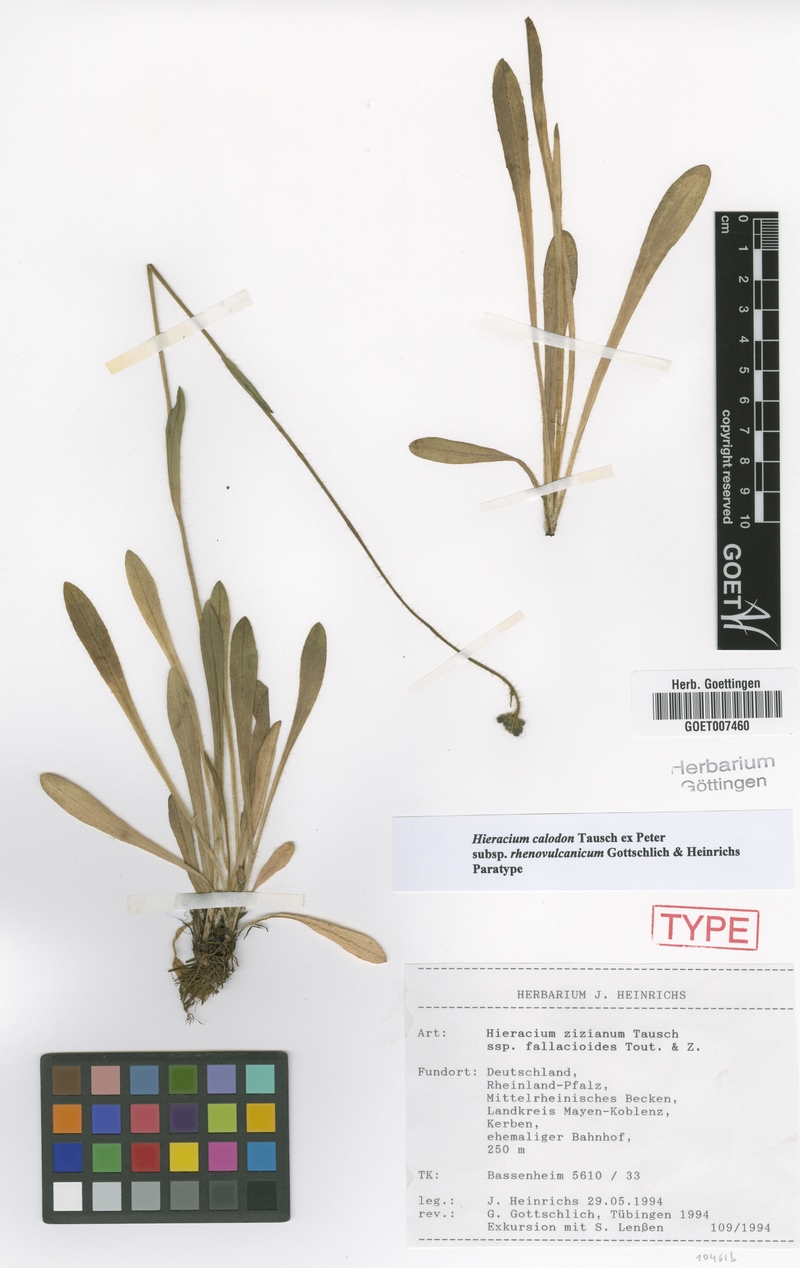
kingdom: Plantae
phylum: Tracheophyta
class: Magnoliopsida
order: Asterales
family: Asteraceae
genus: Pilosella
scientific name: Pilosella calodon
